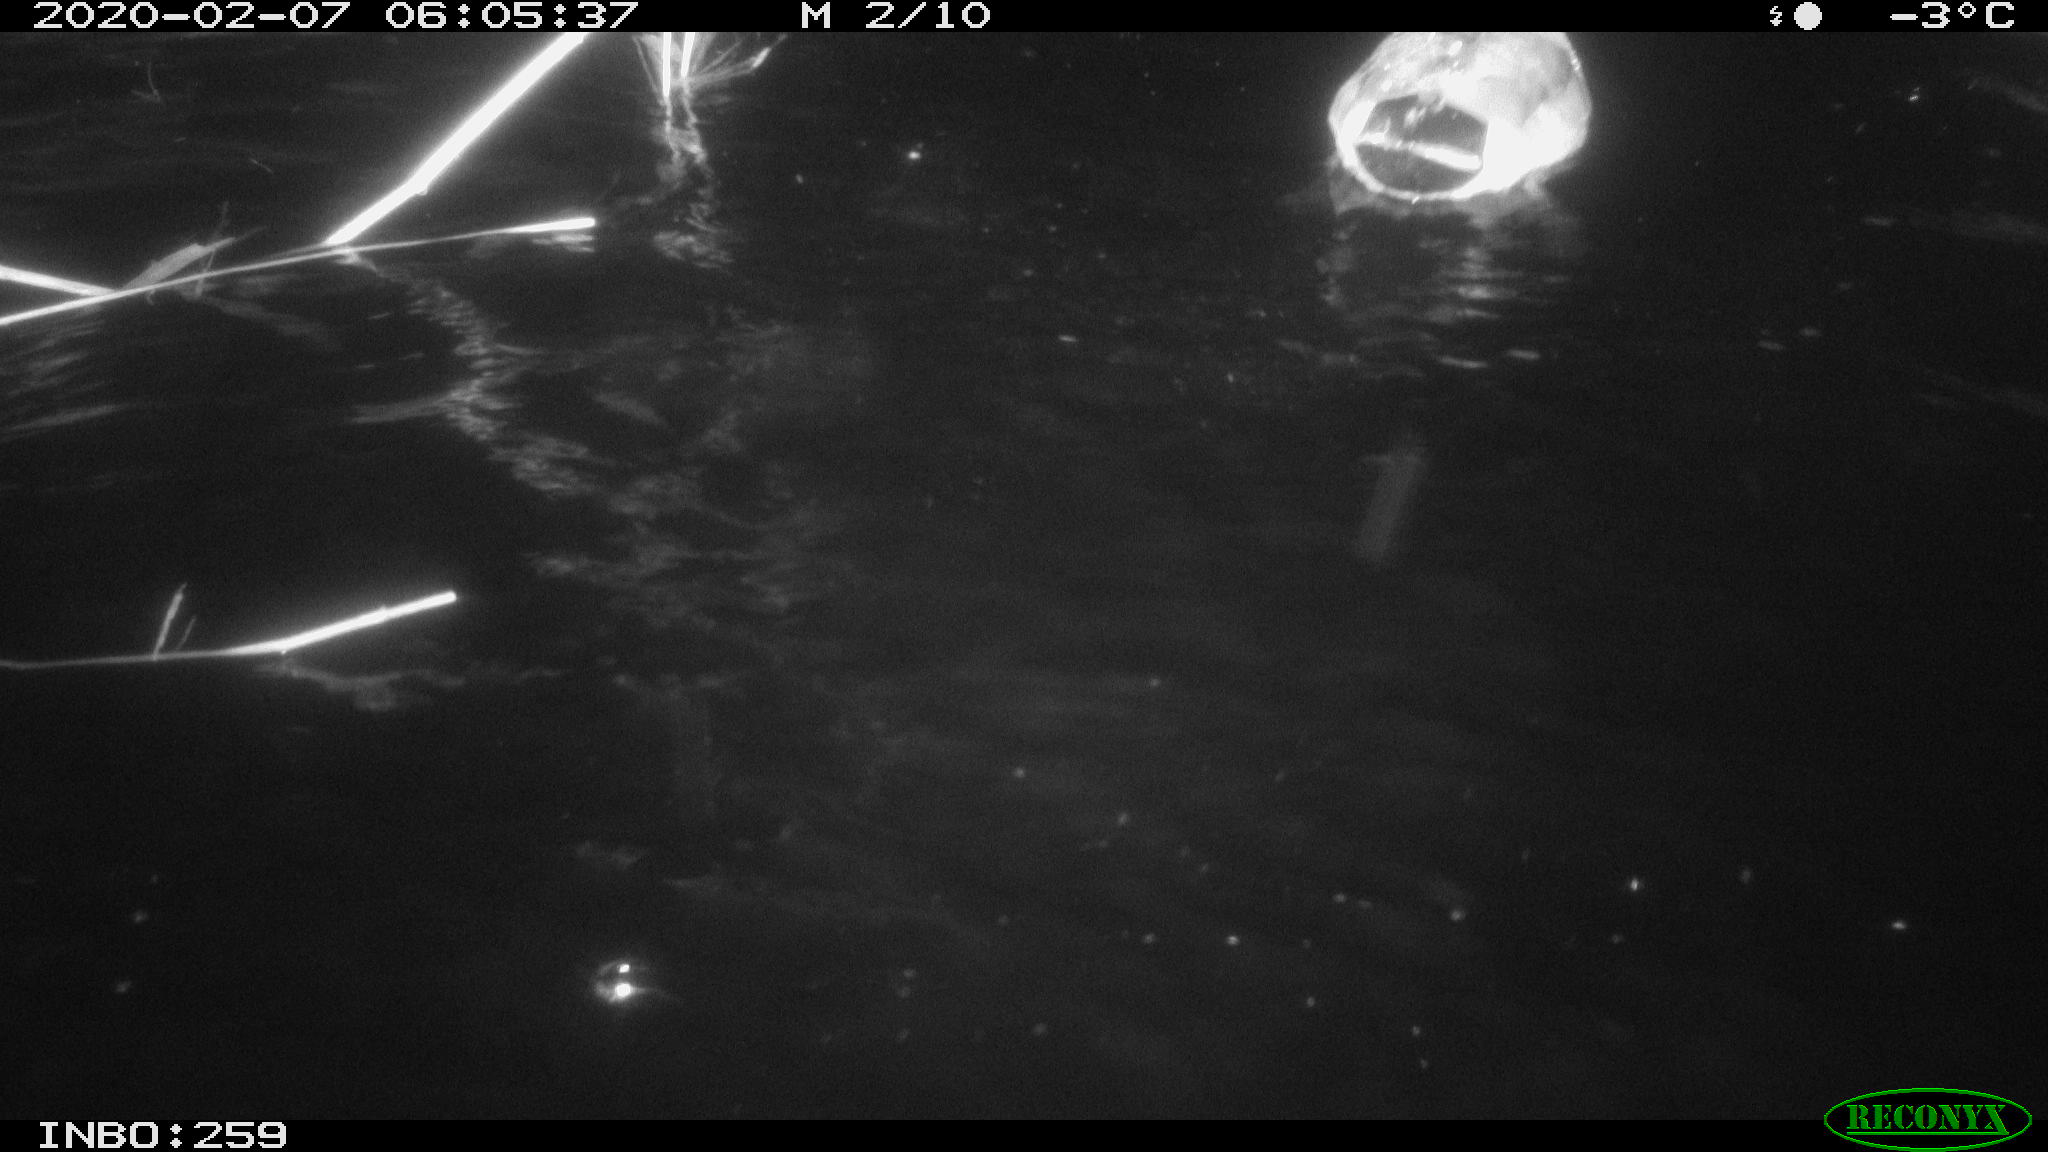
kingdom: Animalia
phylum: Chordata
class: Aves
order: Anseriformes
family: Anatidae
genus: Anas
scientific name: Anas platyrhynchos
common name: Mallard
